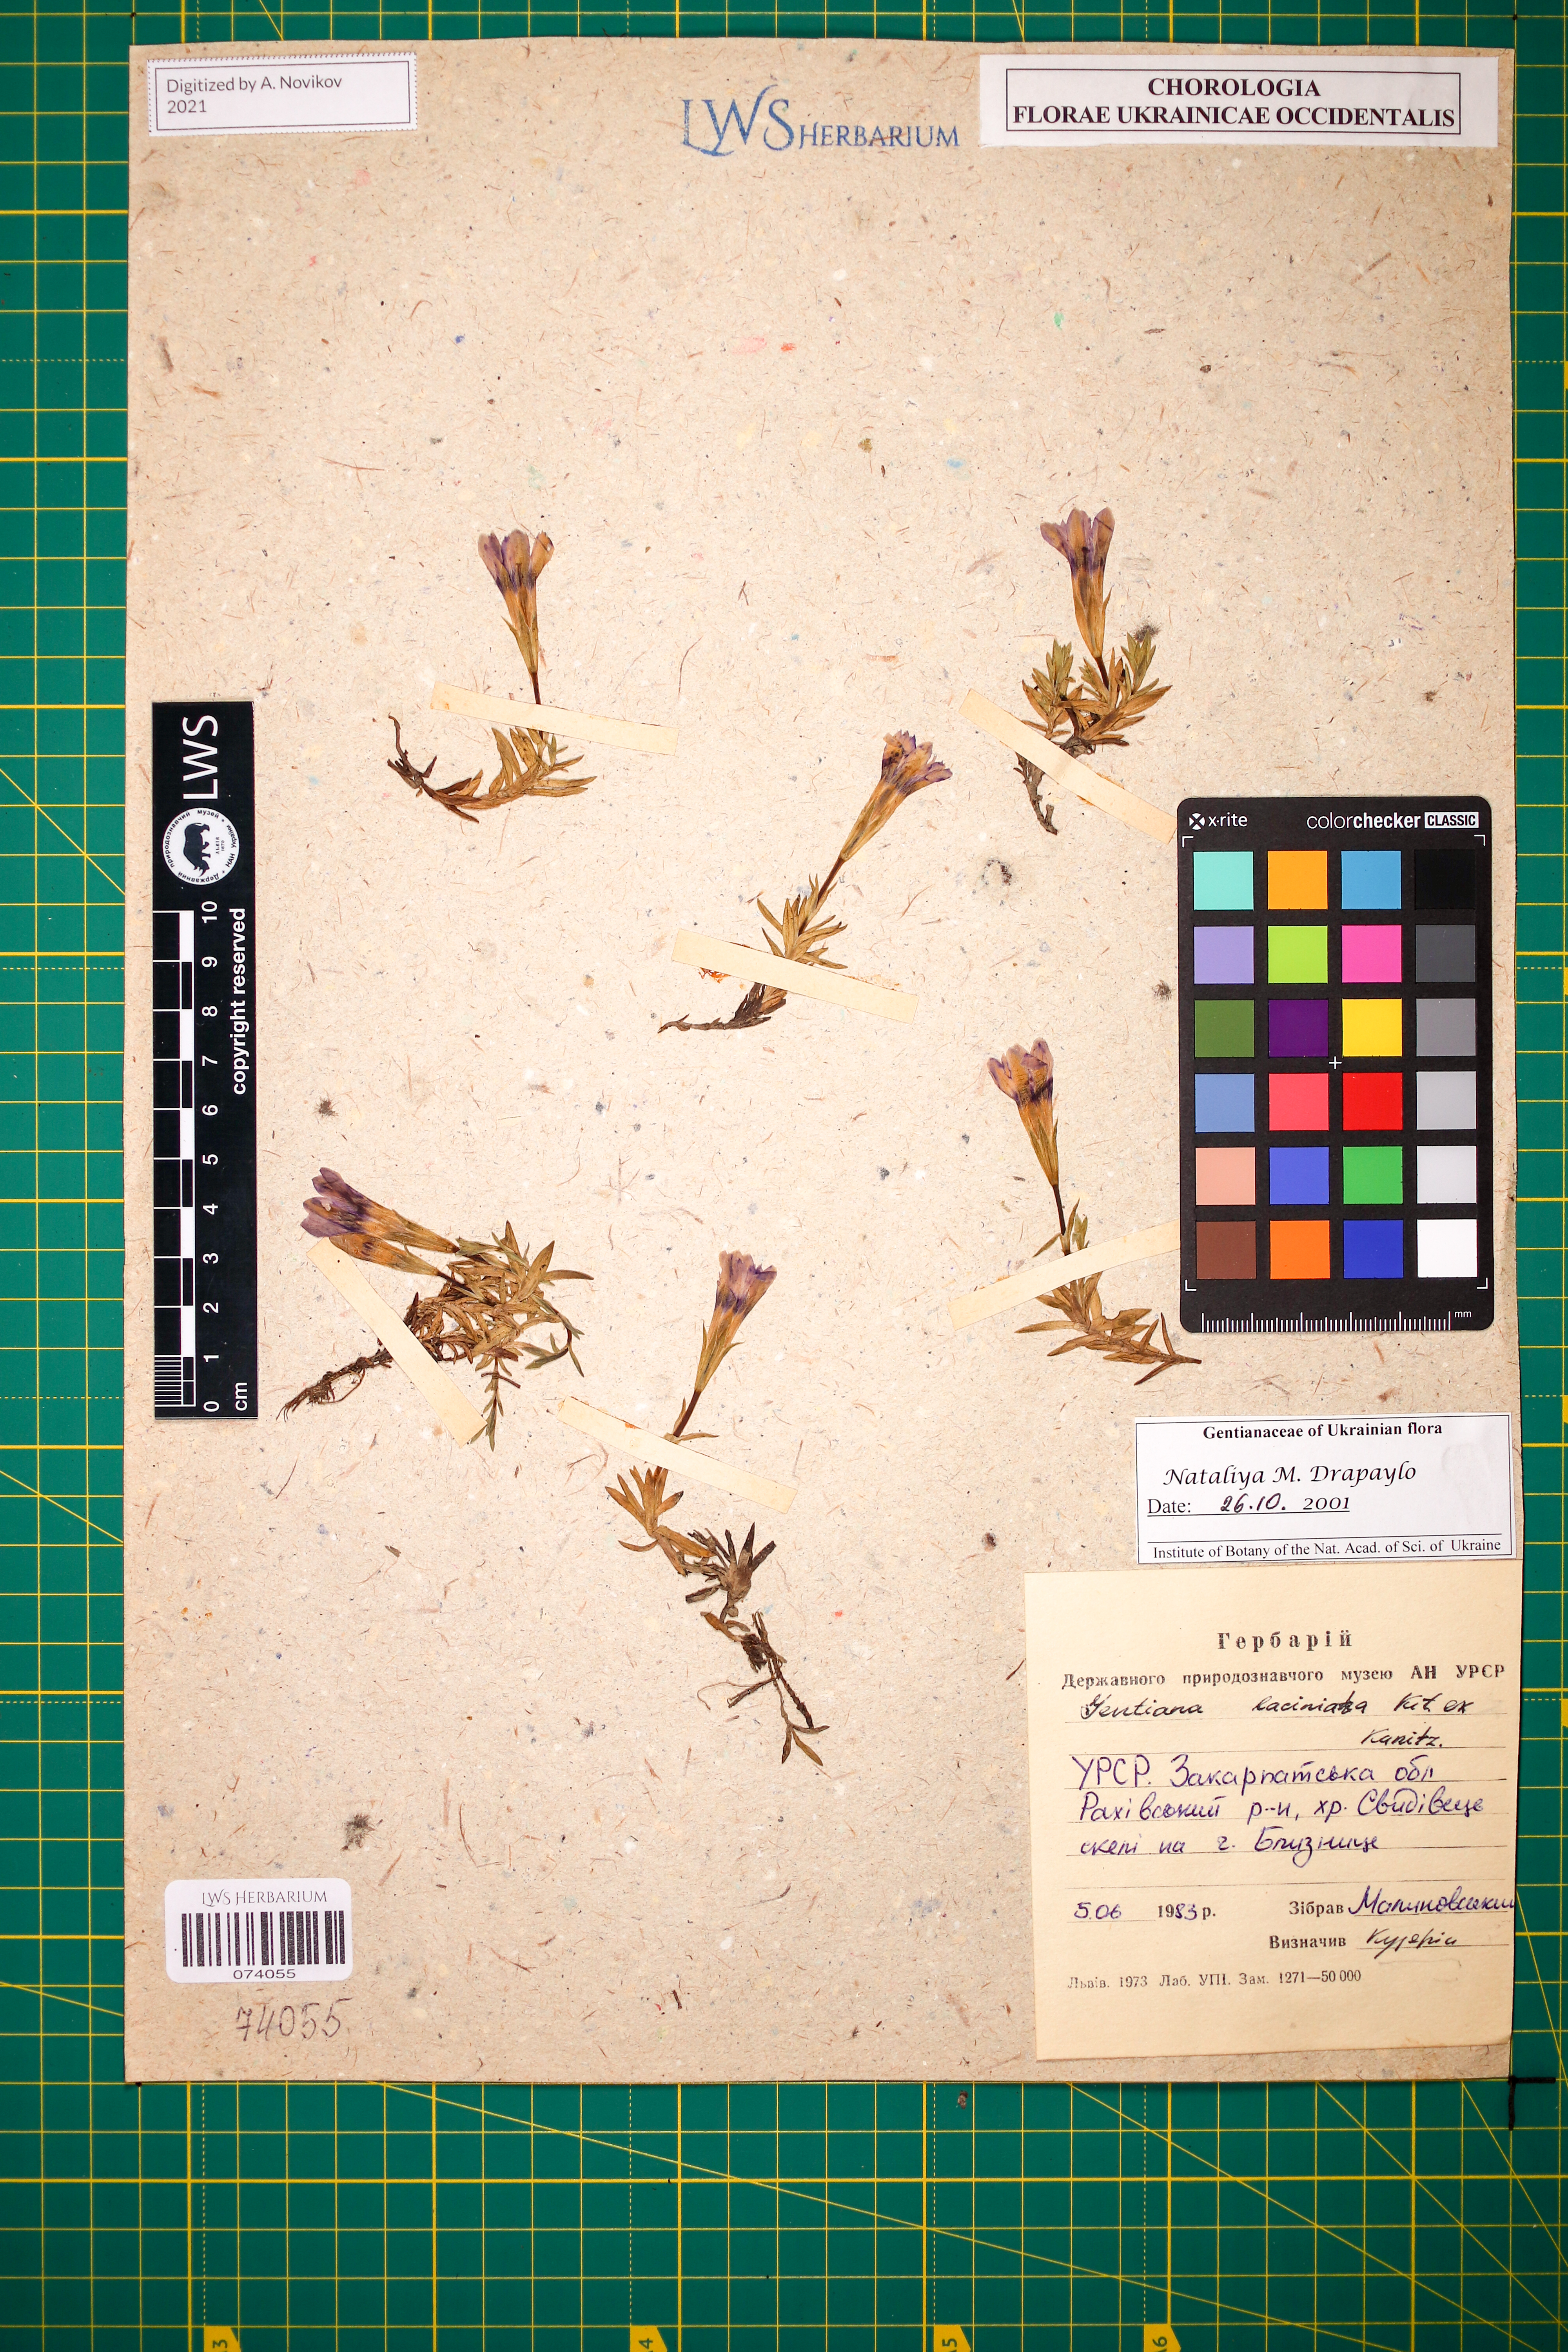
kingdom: Plantae
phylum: Tracheophyta
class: Magnoliopsida
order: Gentianales
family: Gentianaceae
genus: Gentiana
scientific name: Gentiana laciniata
